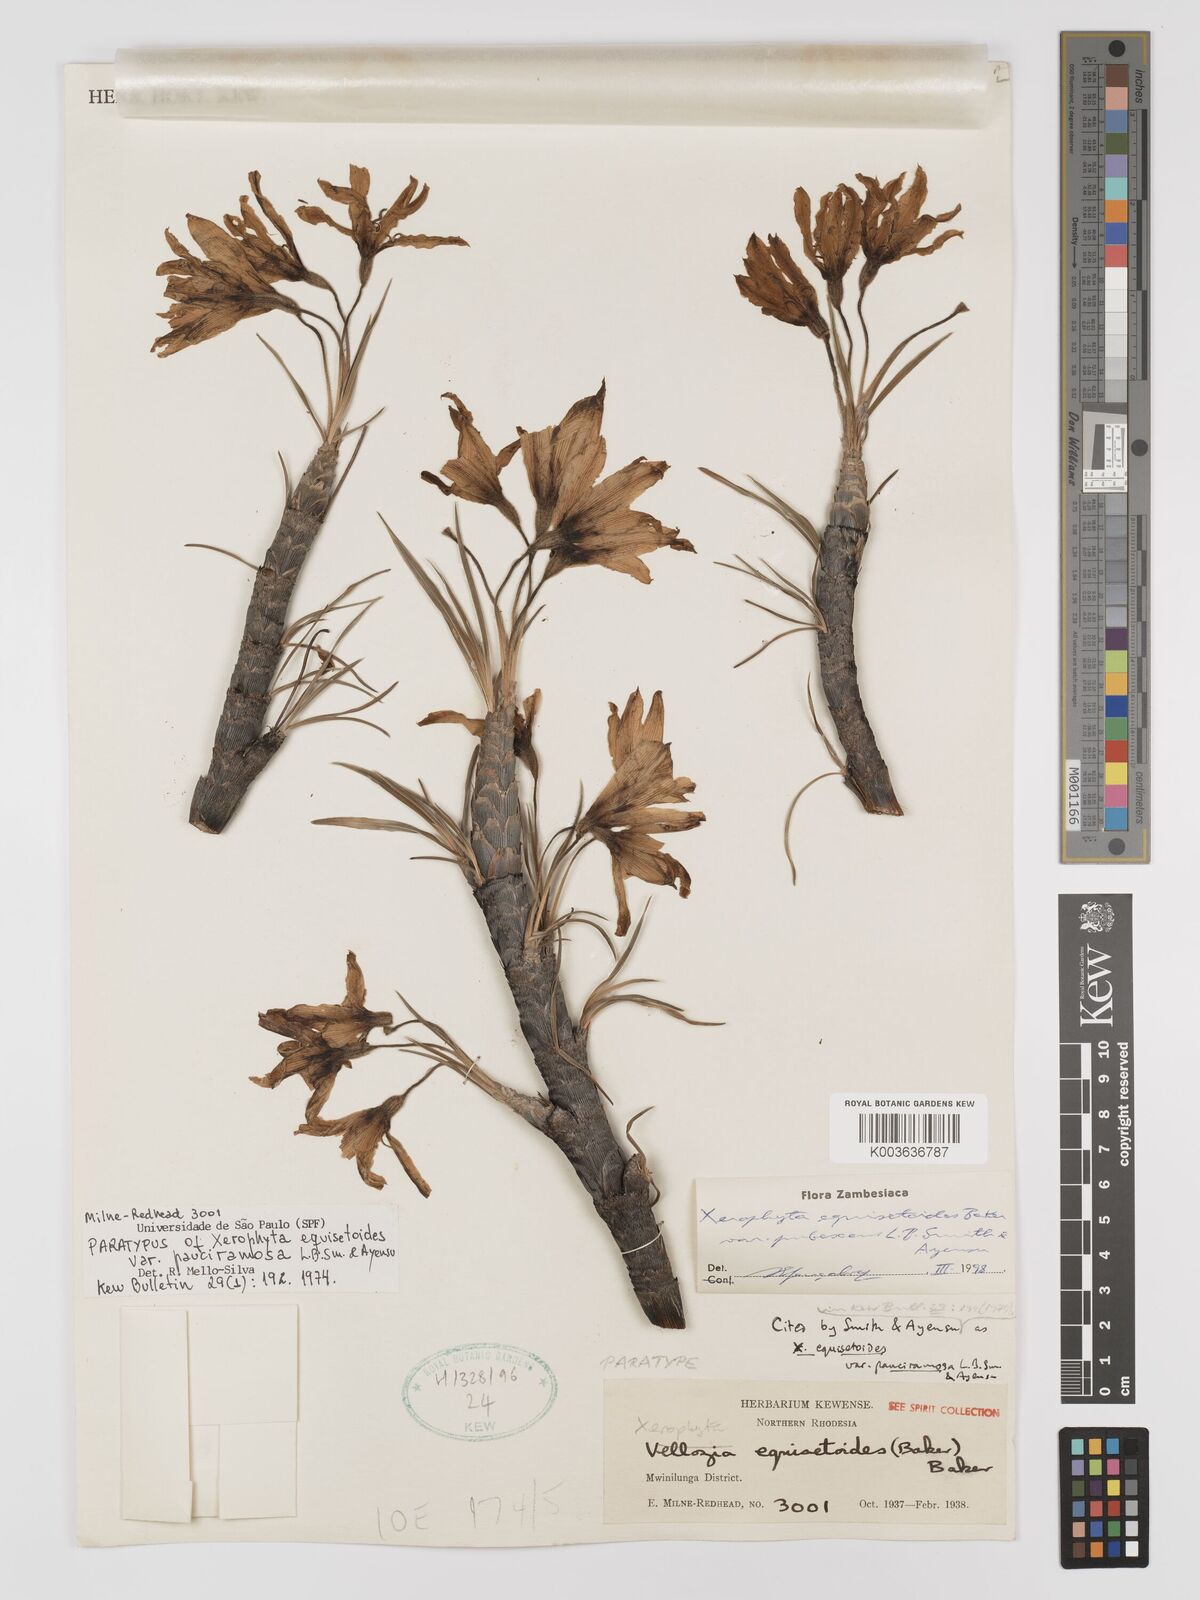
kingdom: Plantae
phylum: Tracheophyta
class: Liliopsida
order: Pandanales
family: Velloziaceae
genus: Xerophyta
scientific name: Xerophyta wentzeliana
